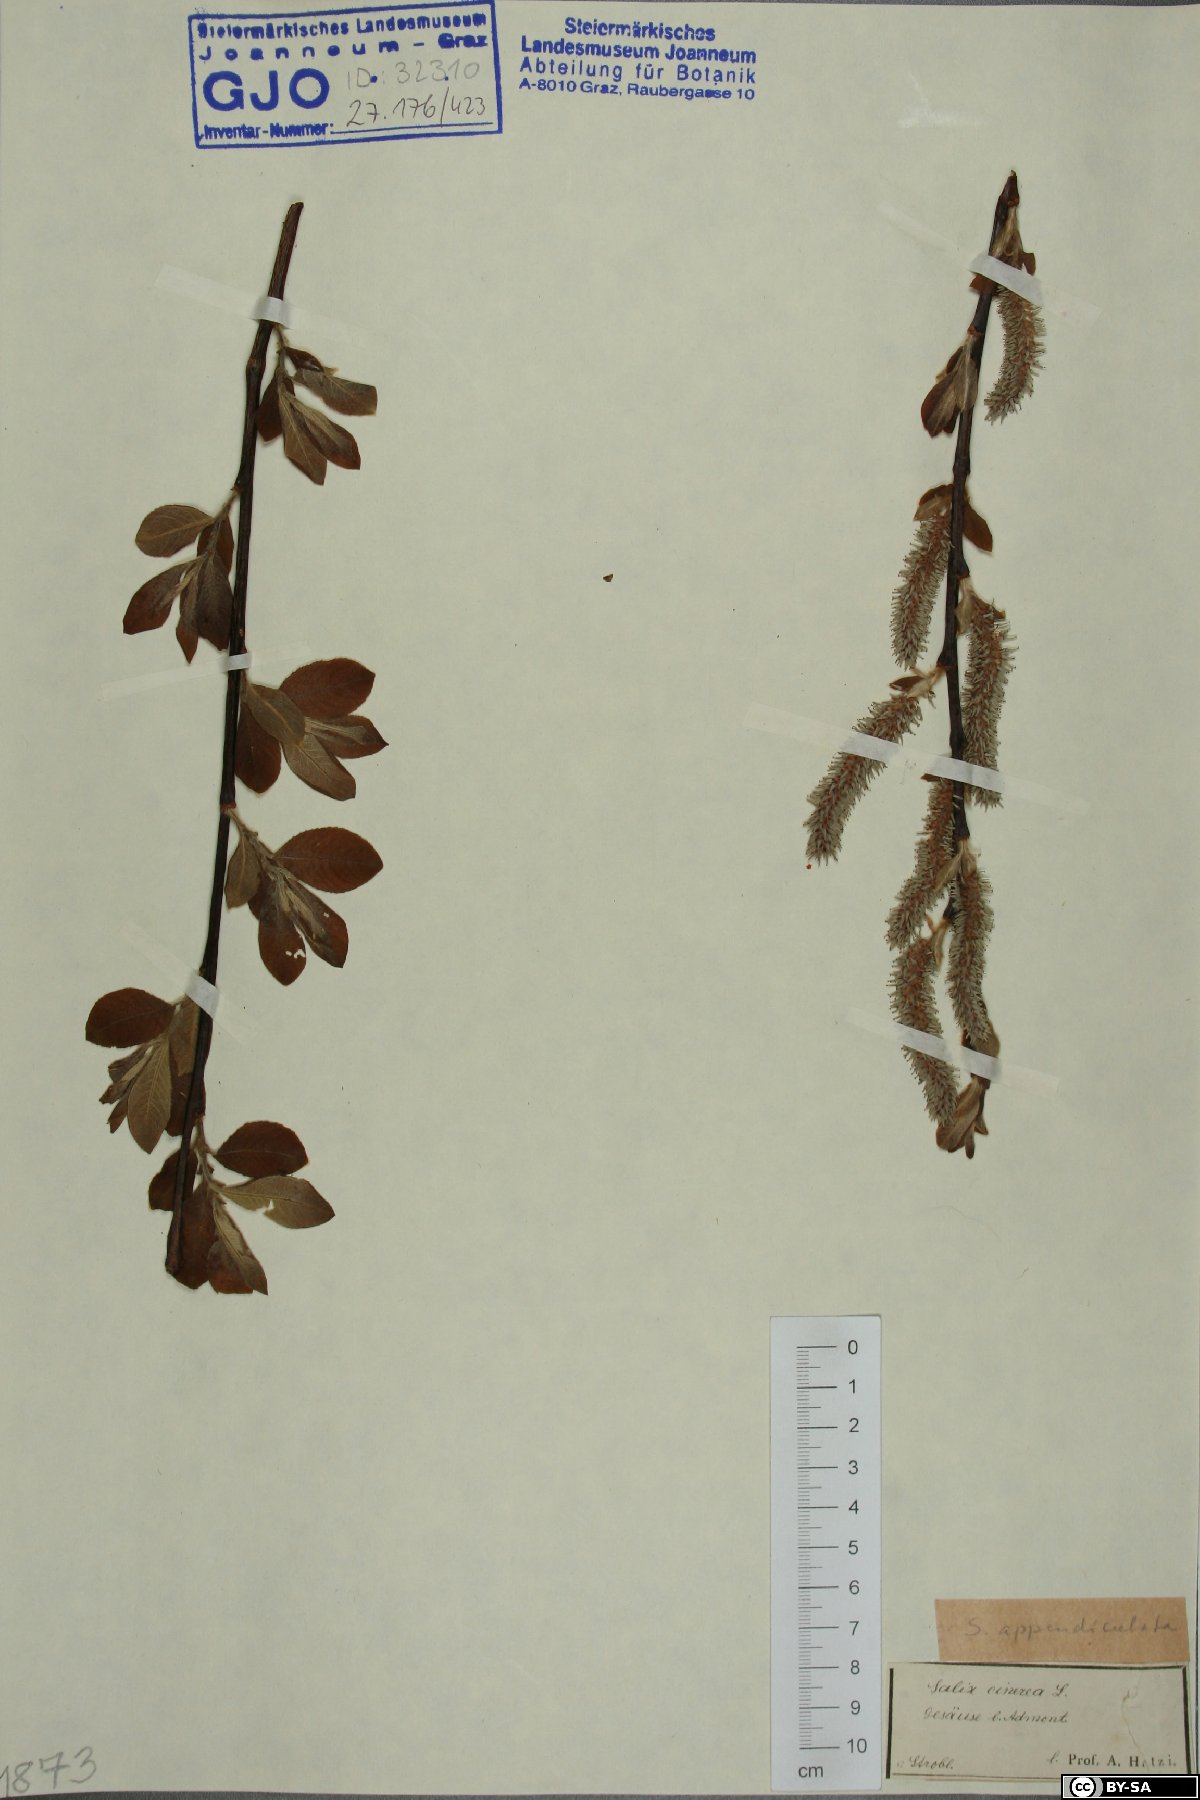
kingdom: Plantae
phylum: Tracheophyta
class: Magnoliopsida
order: Malpighiales
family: Salicaceae
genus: Salix
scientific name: Salix cinerea
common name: Common sallow
